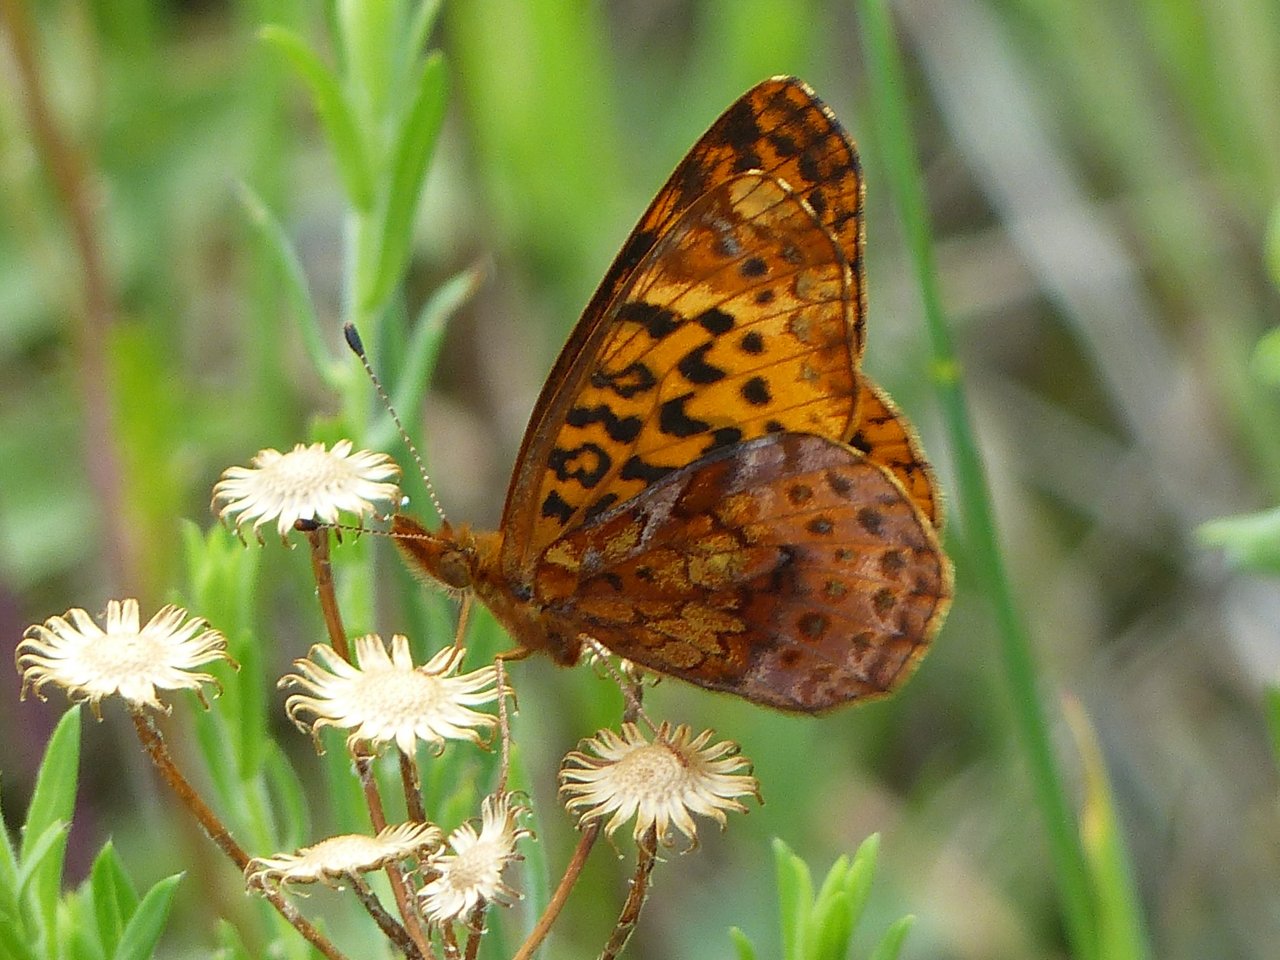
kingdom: Animalia
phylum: Arthropoda
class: Insecta
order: Lepidoptera
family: Nymphalidae
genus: Clossiana
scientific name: Clossiana toddi
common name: Meadow Fritillary
